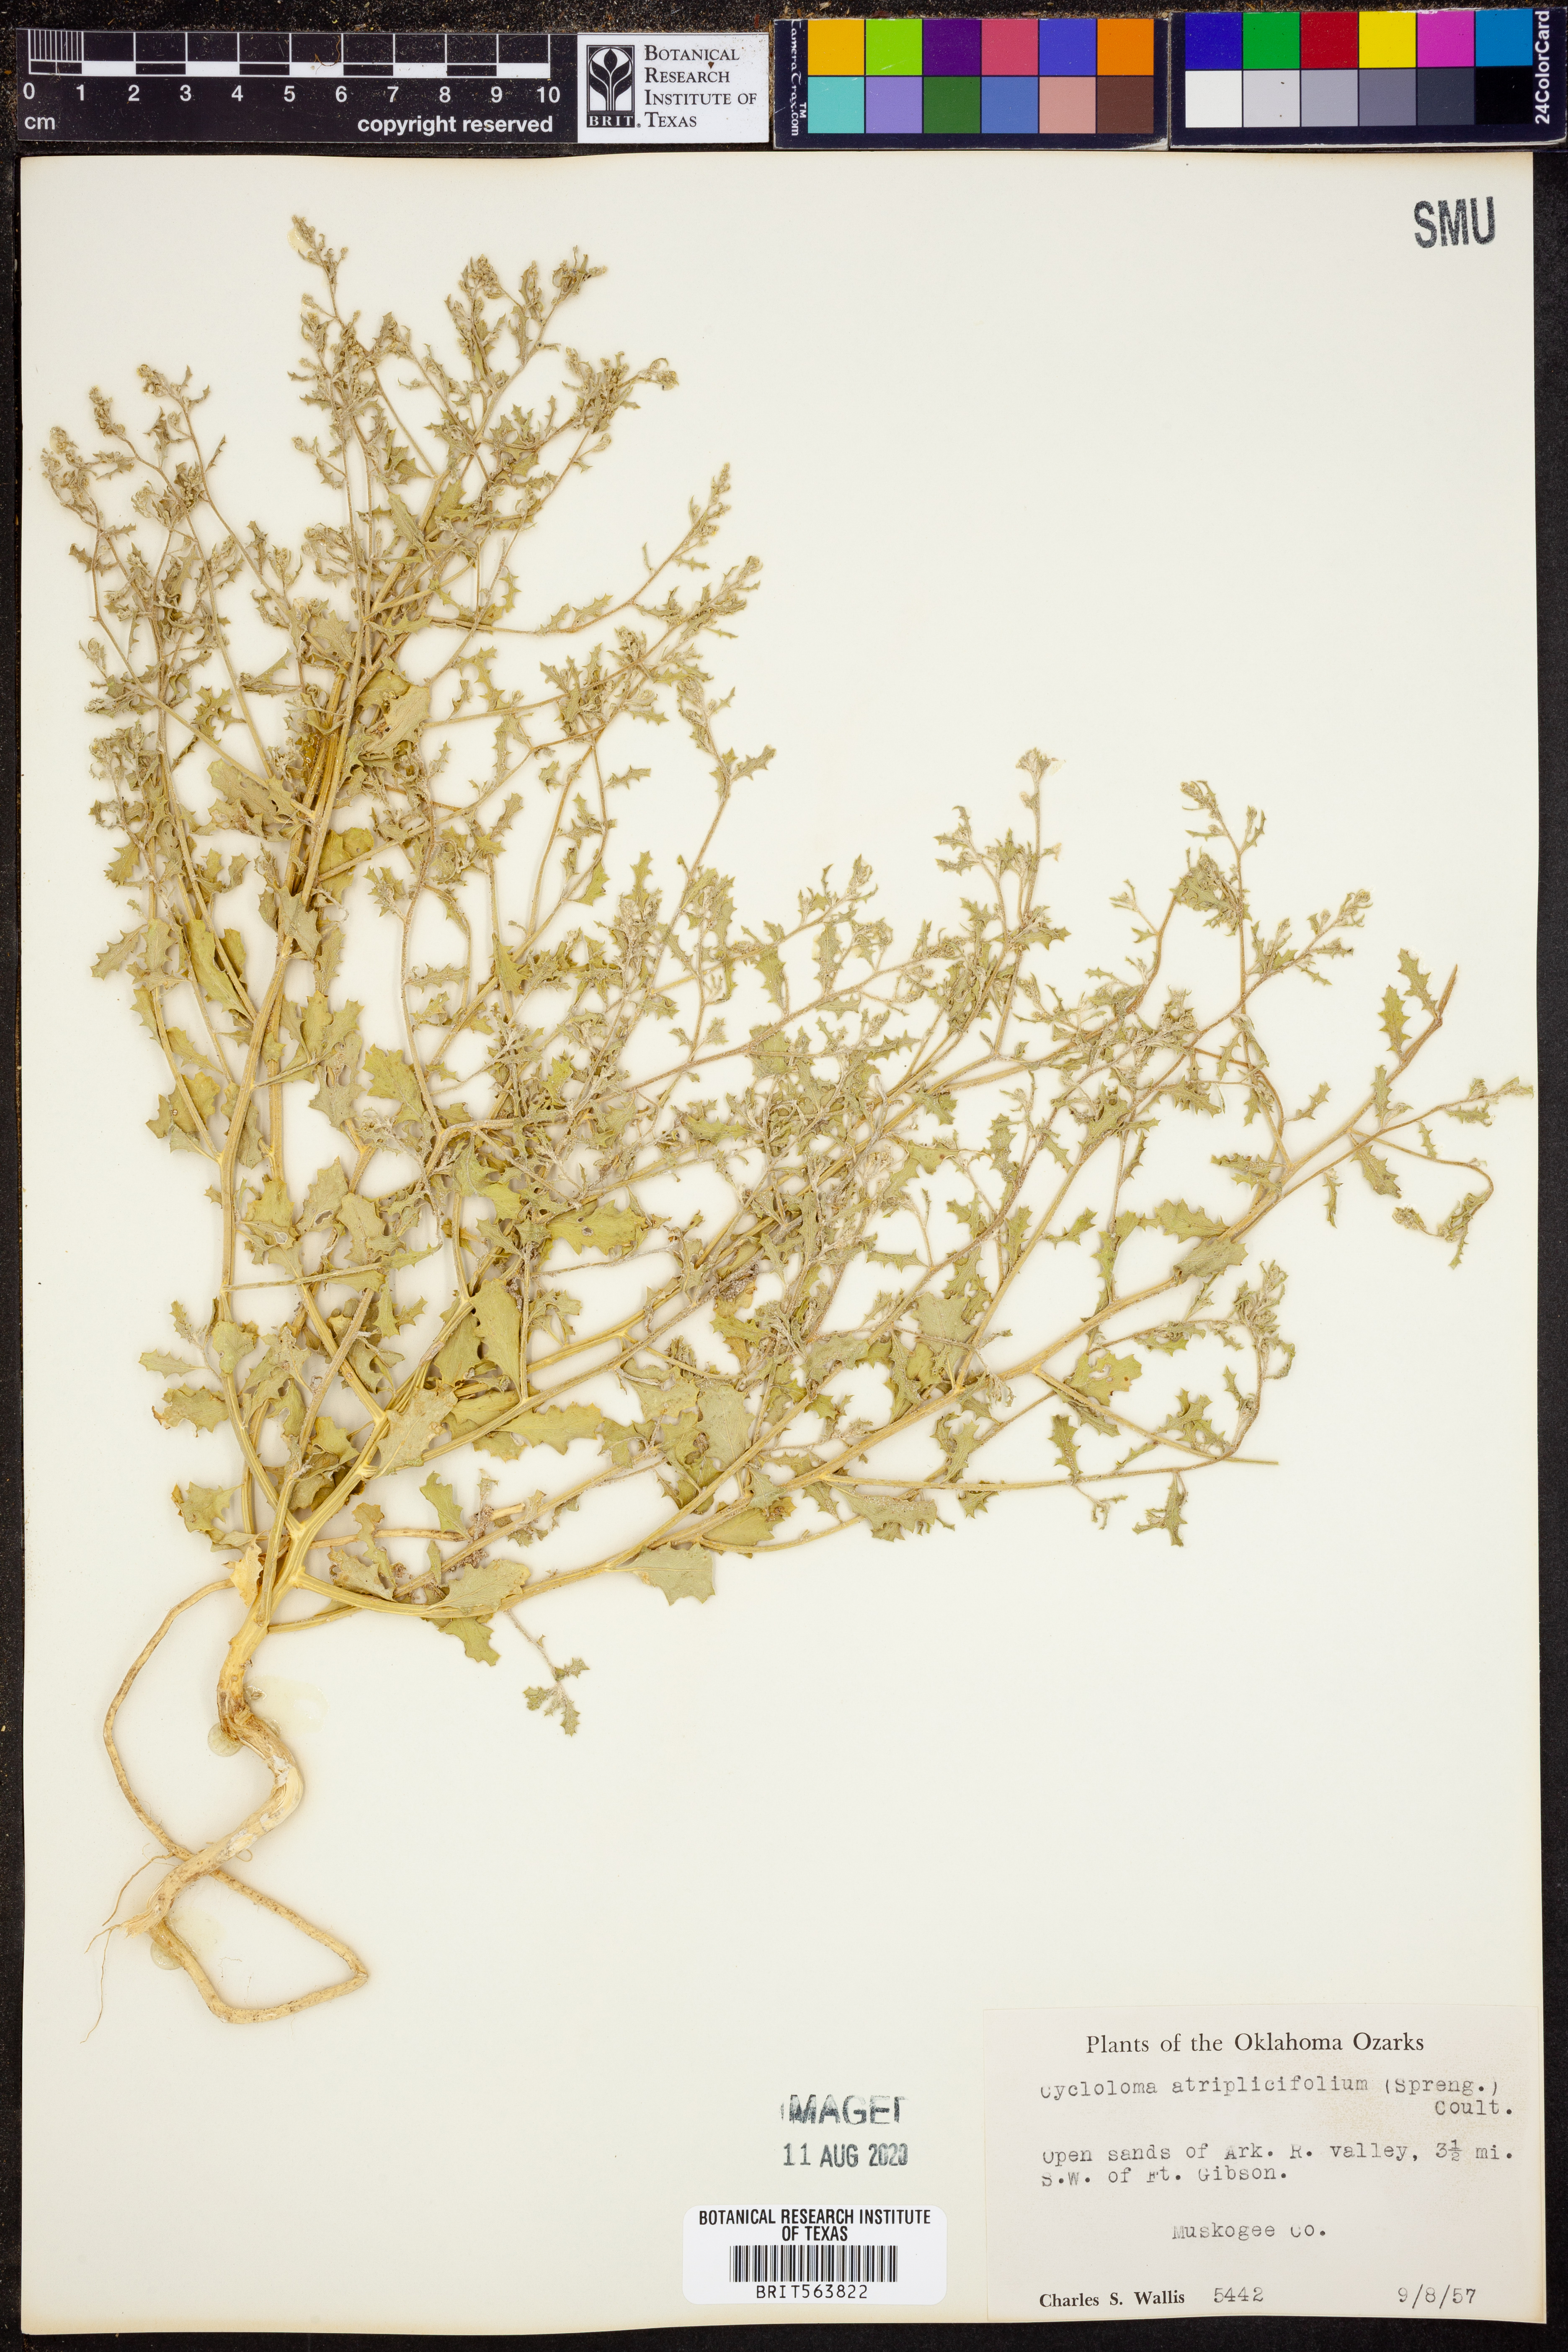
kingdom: Plantae
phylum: Tracheophyta
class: Magnoliopsida
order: Caryophyllales
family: Amaranthaceae
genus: Dysphania
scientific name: Dysphania atriplicifolia
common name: Plains tumbleweed
